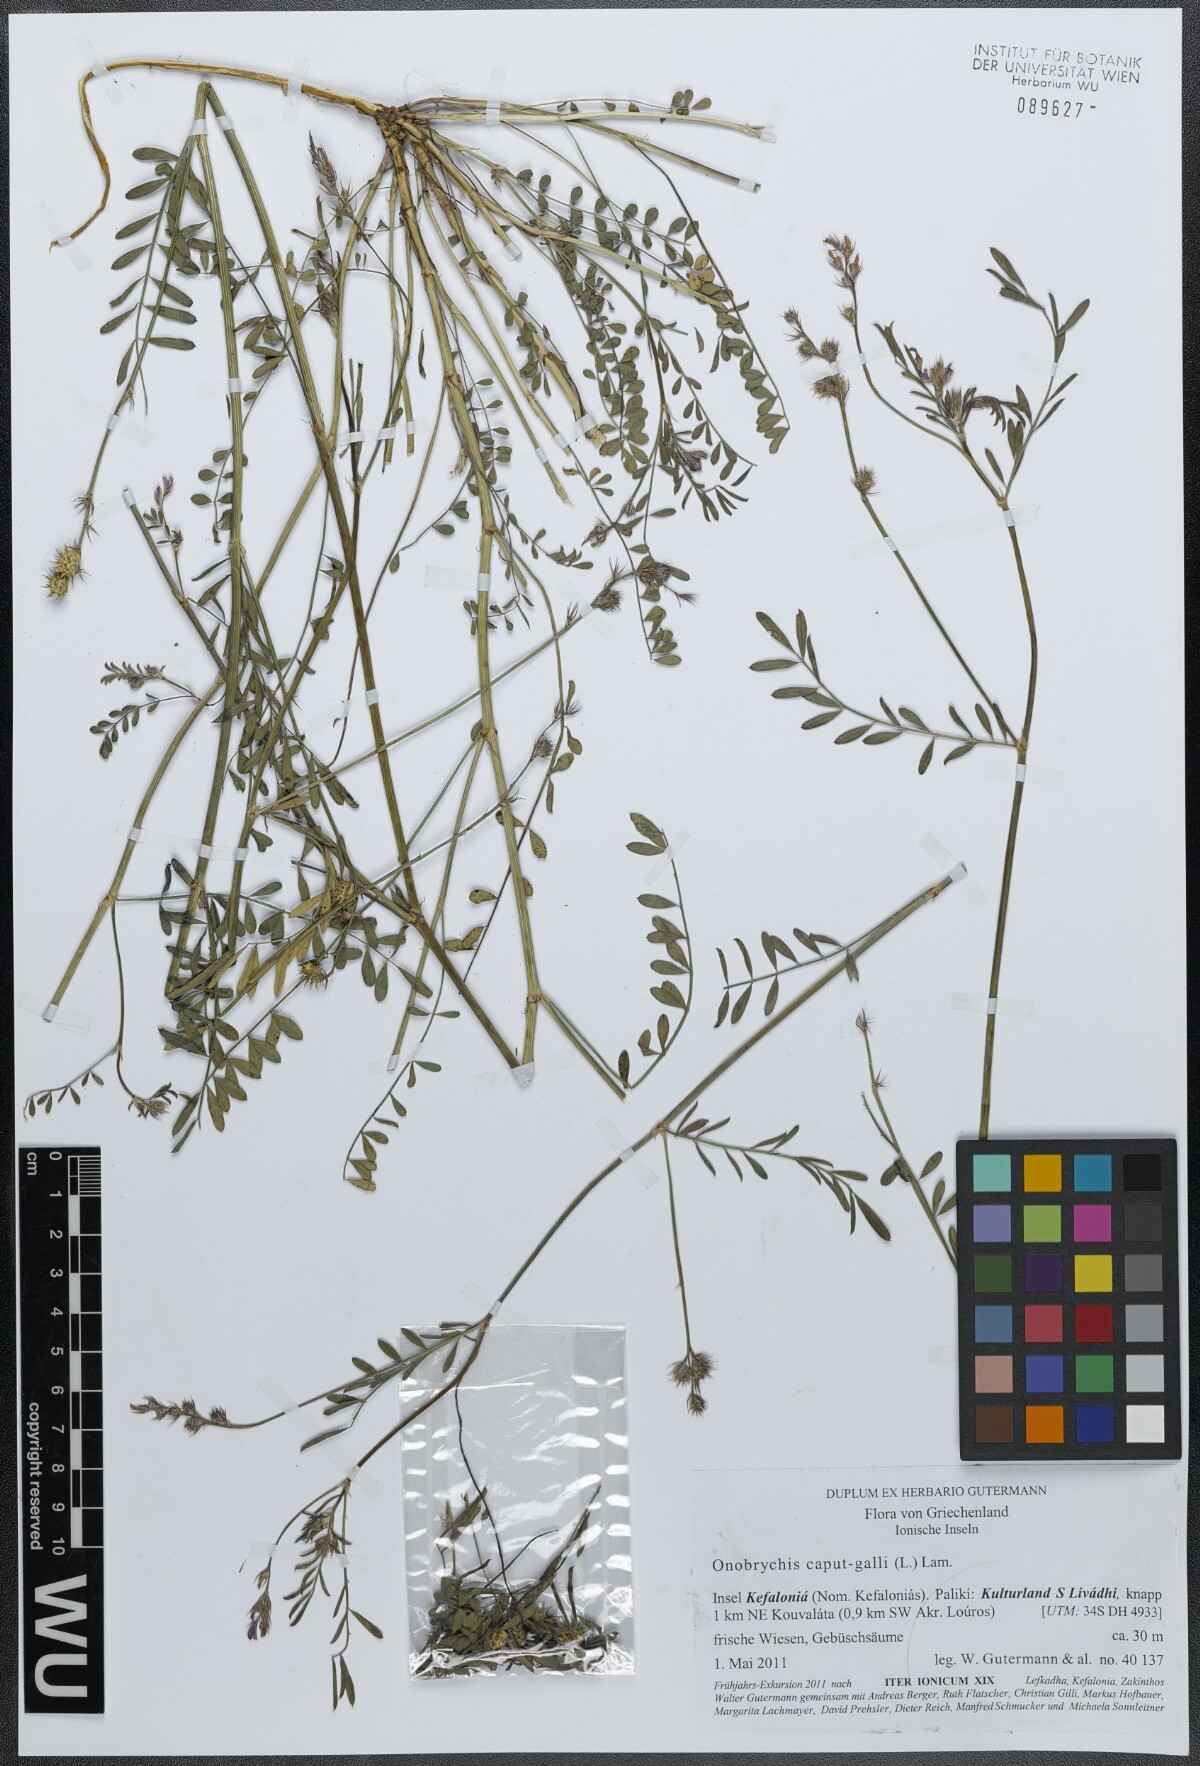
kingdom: Plantae
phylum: Tracheophyta
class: Magnoliopsida
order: Fabales
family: Fabaceae
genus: Onobrychis
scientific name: Onobrychis caput-galli
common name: Cockscomb sainfoin
